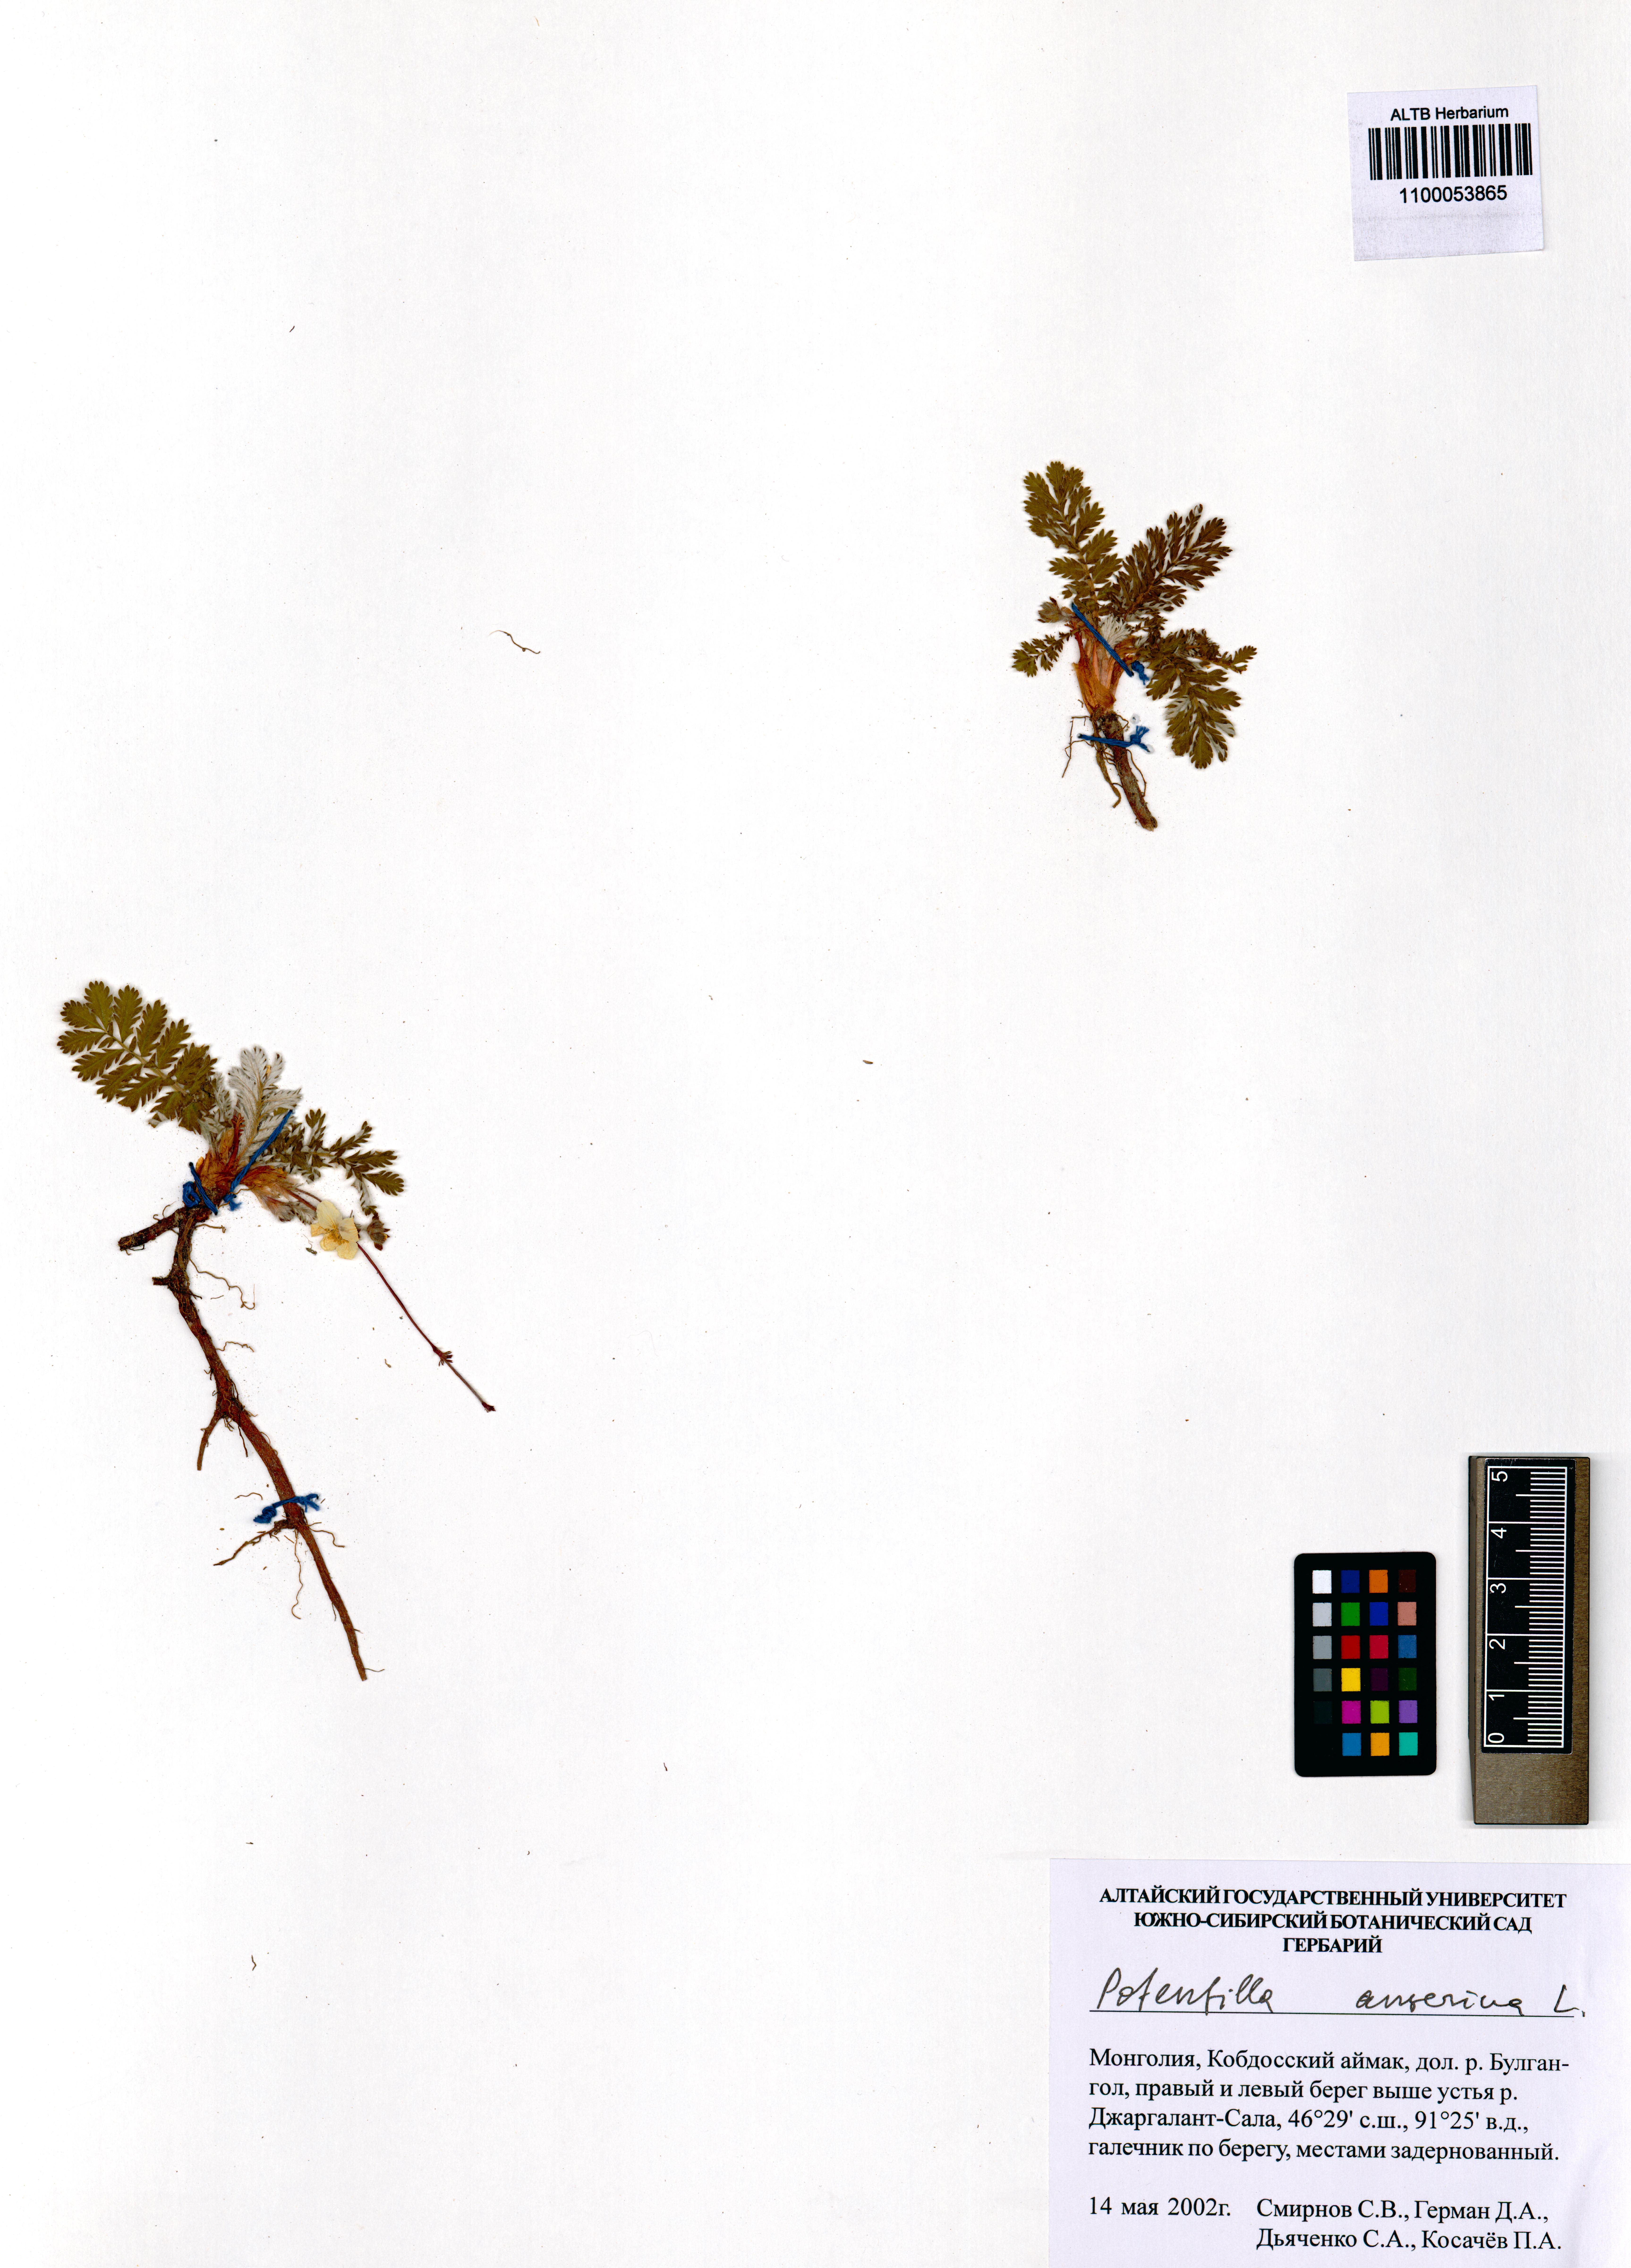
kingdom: Plantae
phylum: Tracheophyta
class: Magnoliopsida
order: Rosales
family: Rosaceae
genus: Argentina
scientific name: Argentina anserina
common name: Common silverweed
